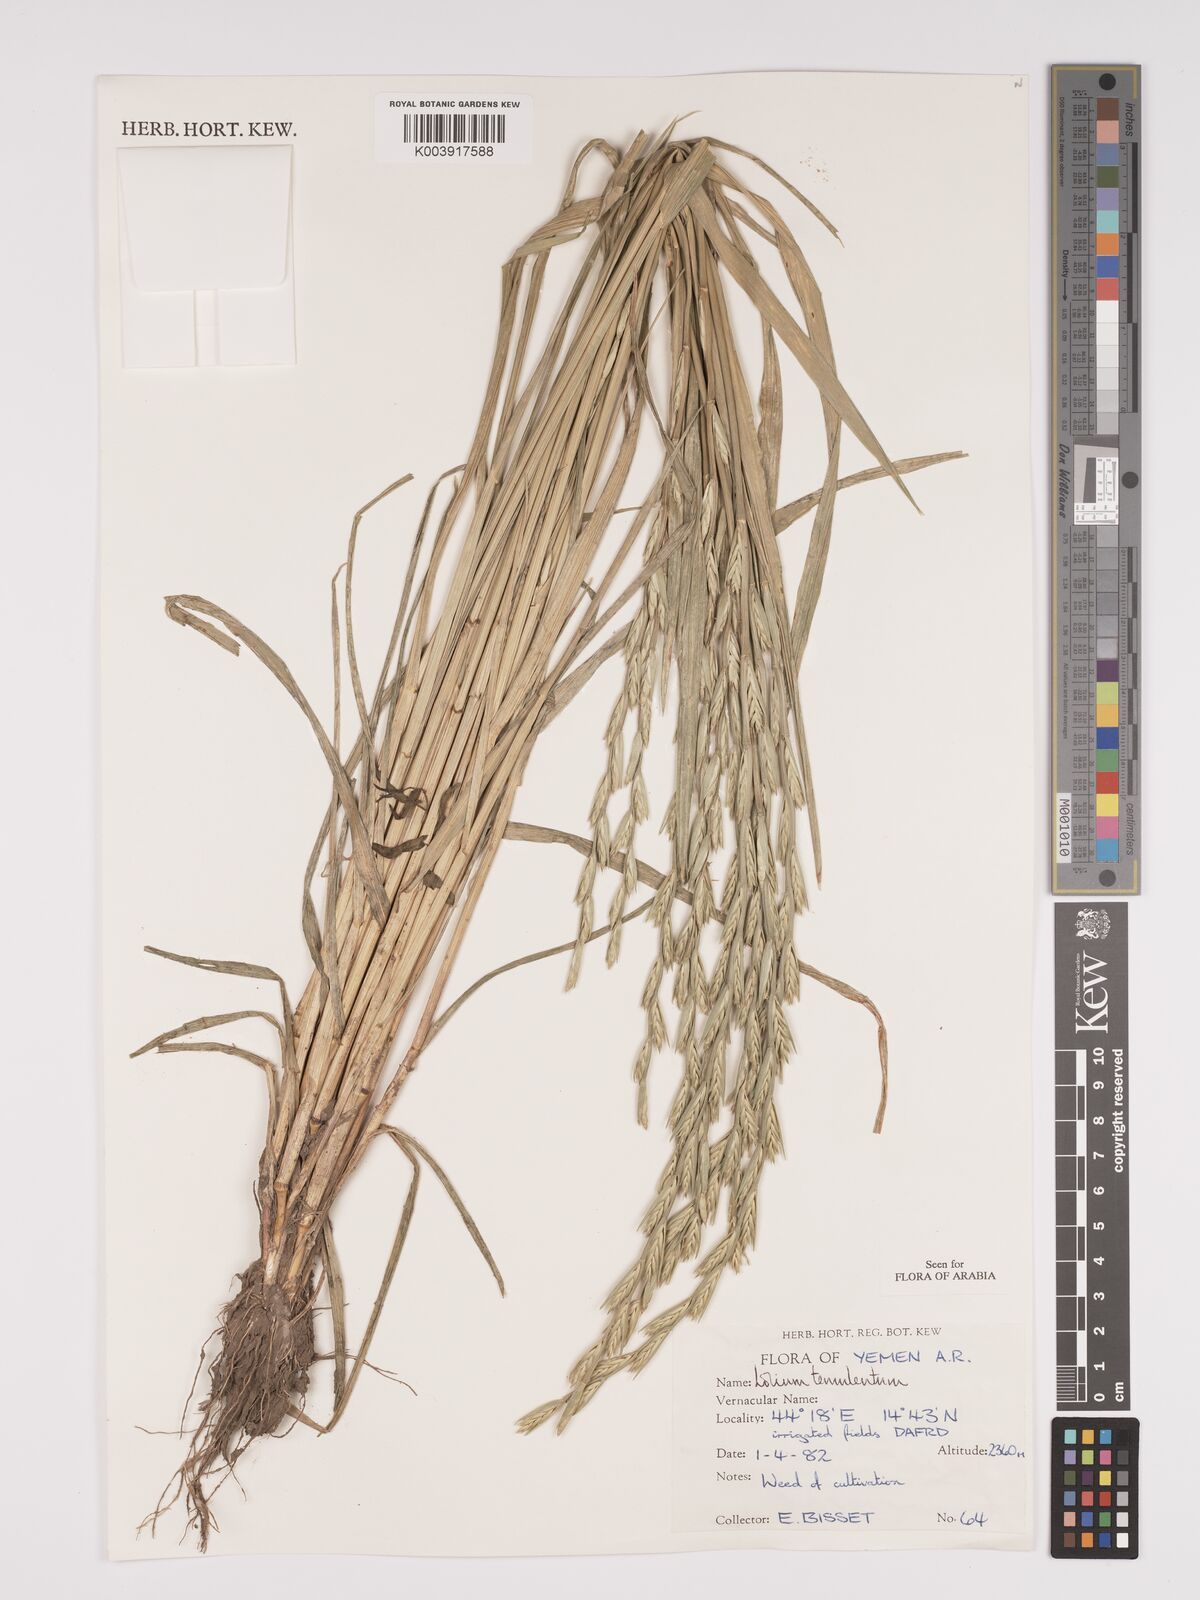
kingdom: Plantae
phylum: Tracheophyta
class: Liliopsida
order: Poales
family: Poaceae
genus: Lolium
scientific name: Lolium temulentum
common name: Darnel
